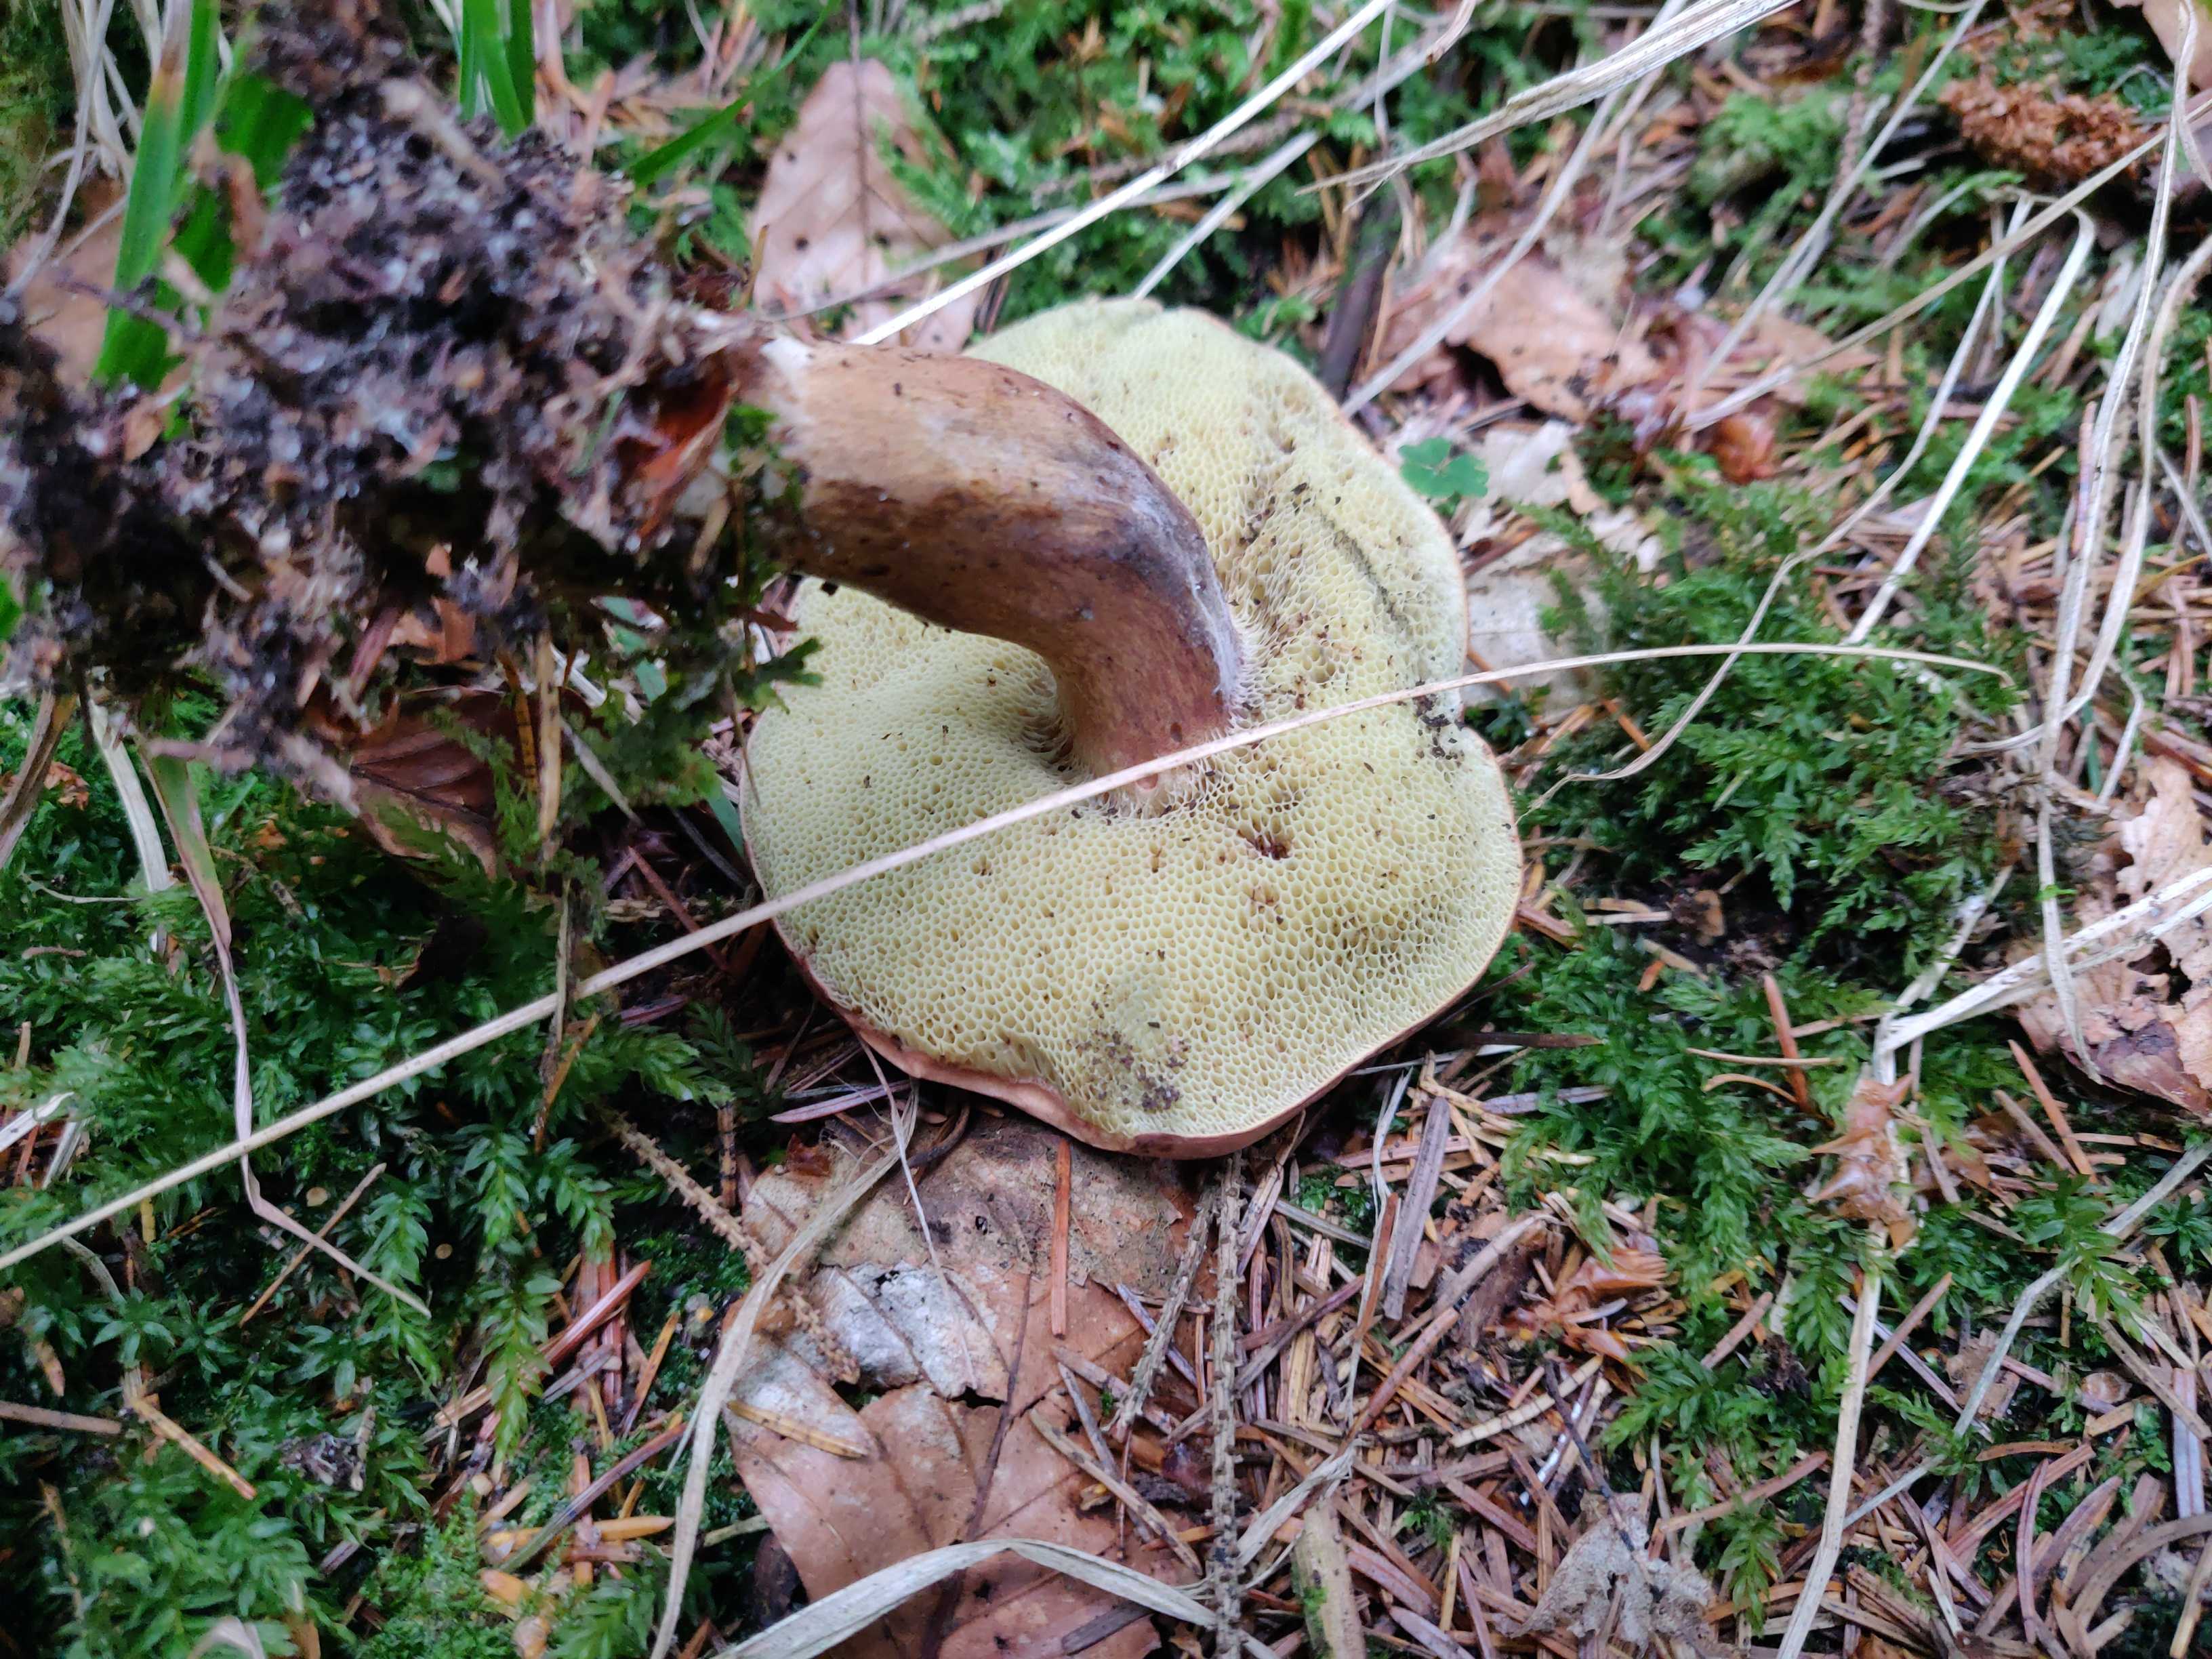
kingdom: Fungi
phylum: Basidiomycota
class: Agaricomycetes
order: Boletales
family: Boletaceae
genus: Imleria
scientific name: Imleria badia
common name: brunstokket rørhat
